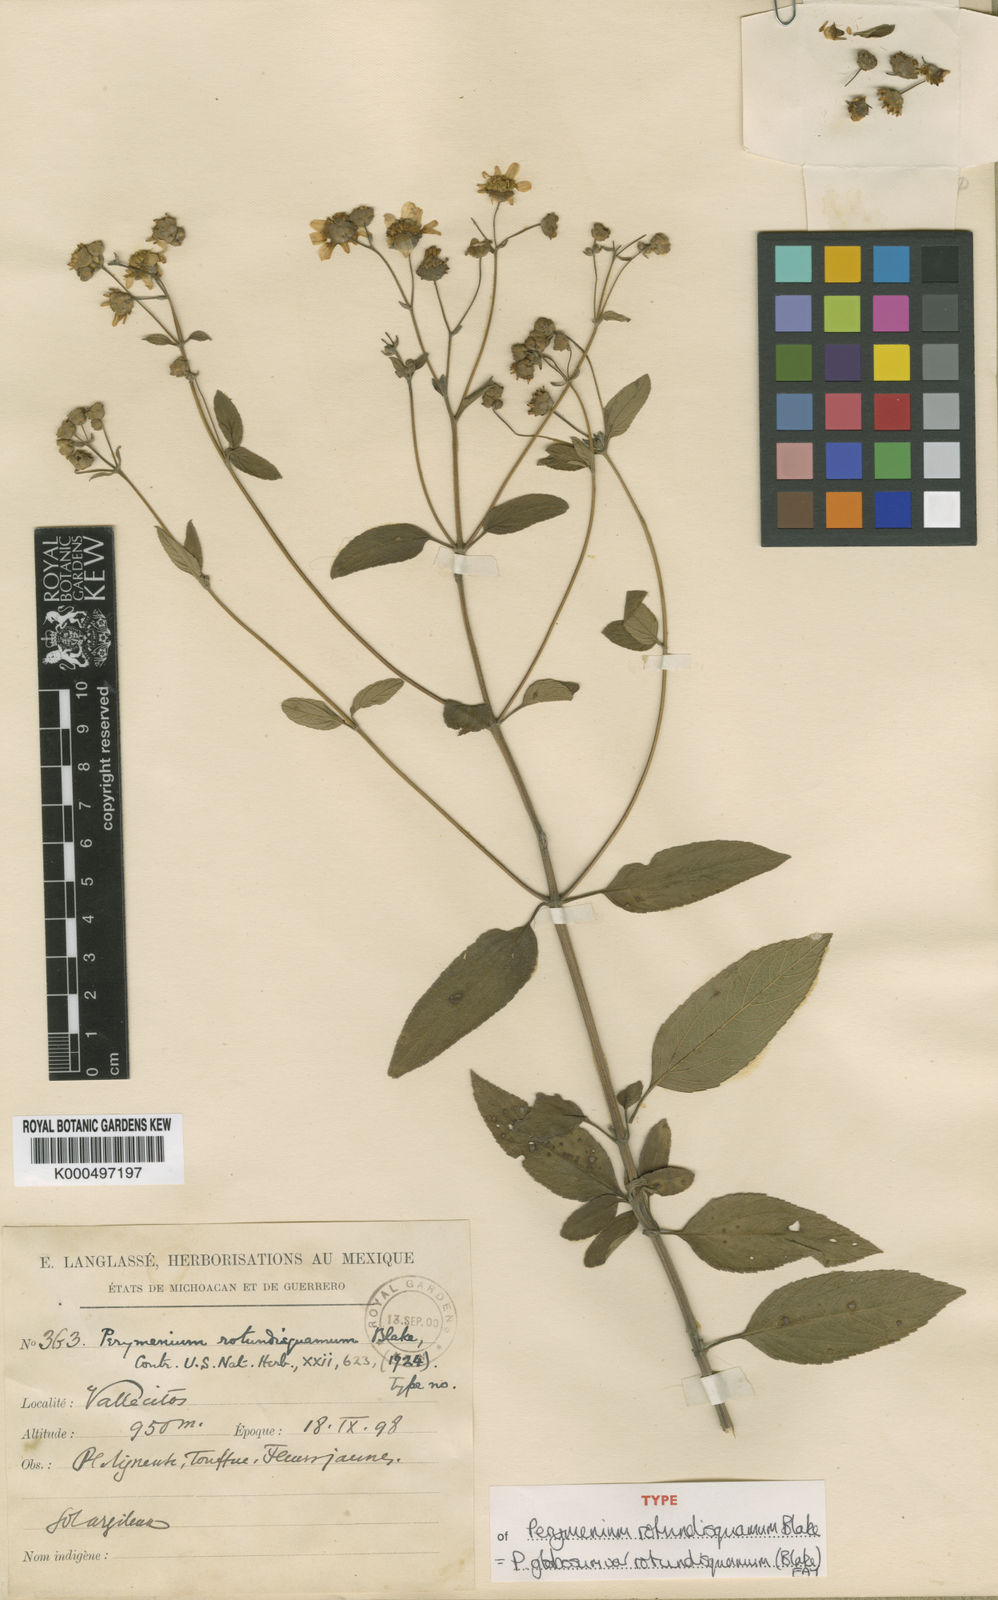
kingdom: Plantae
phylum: Tracheophyta
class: Magnoliopsida
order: Asterales
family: Asteraceae
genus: Perymenium
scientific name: Perymenium globosum
